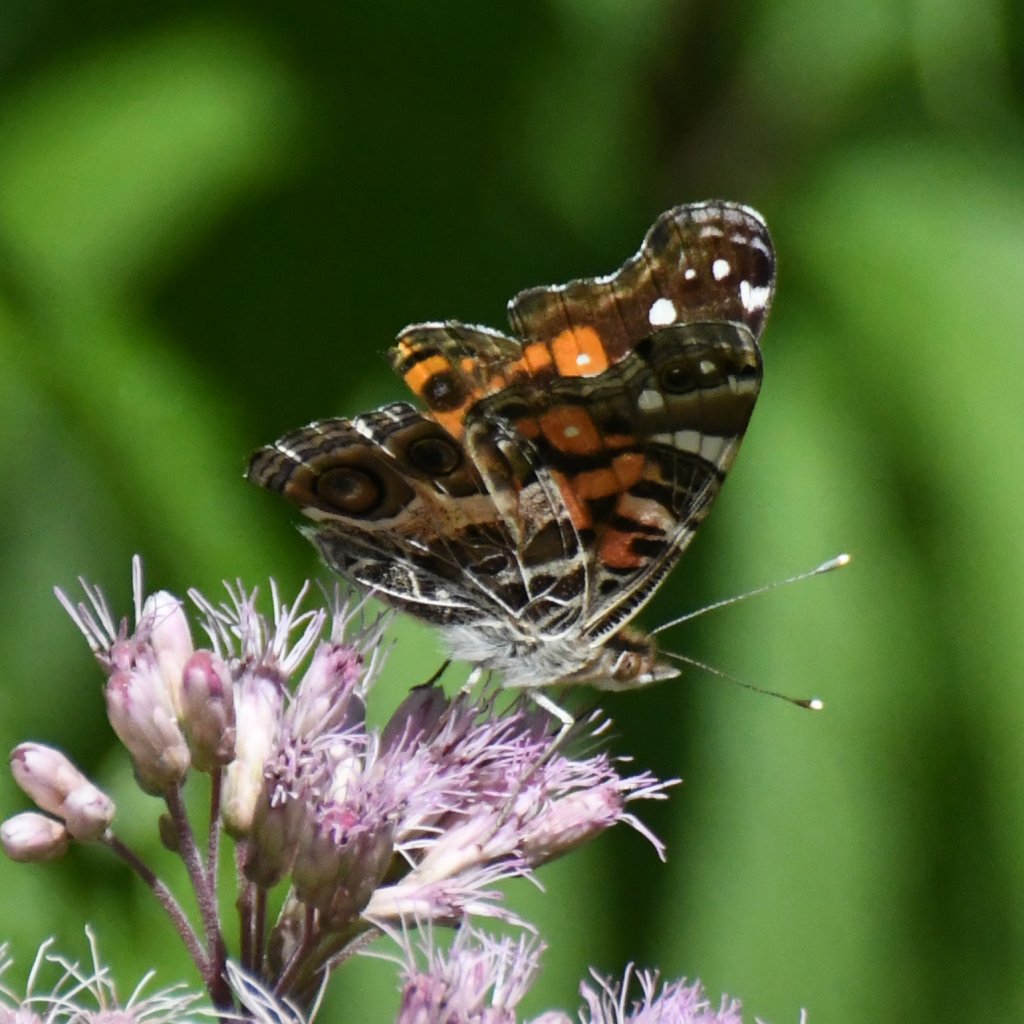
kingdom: Animalia
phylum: Arthropoda
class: Insecta
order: Lepidoptera
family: Nymphalidae
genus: Vanessa
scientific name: Vanessa virginiensis
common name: American Lady
